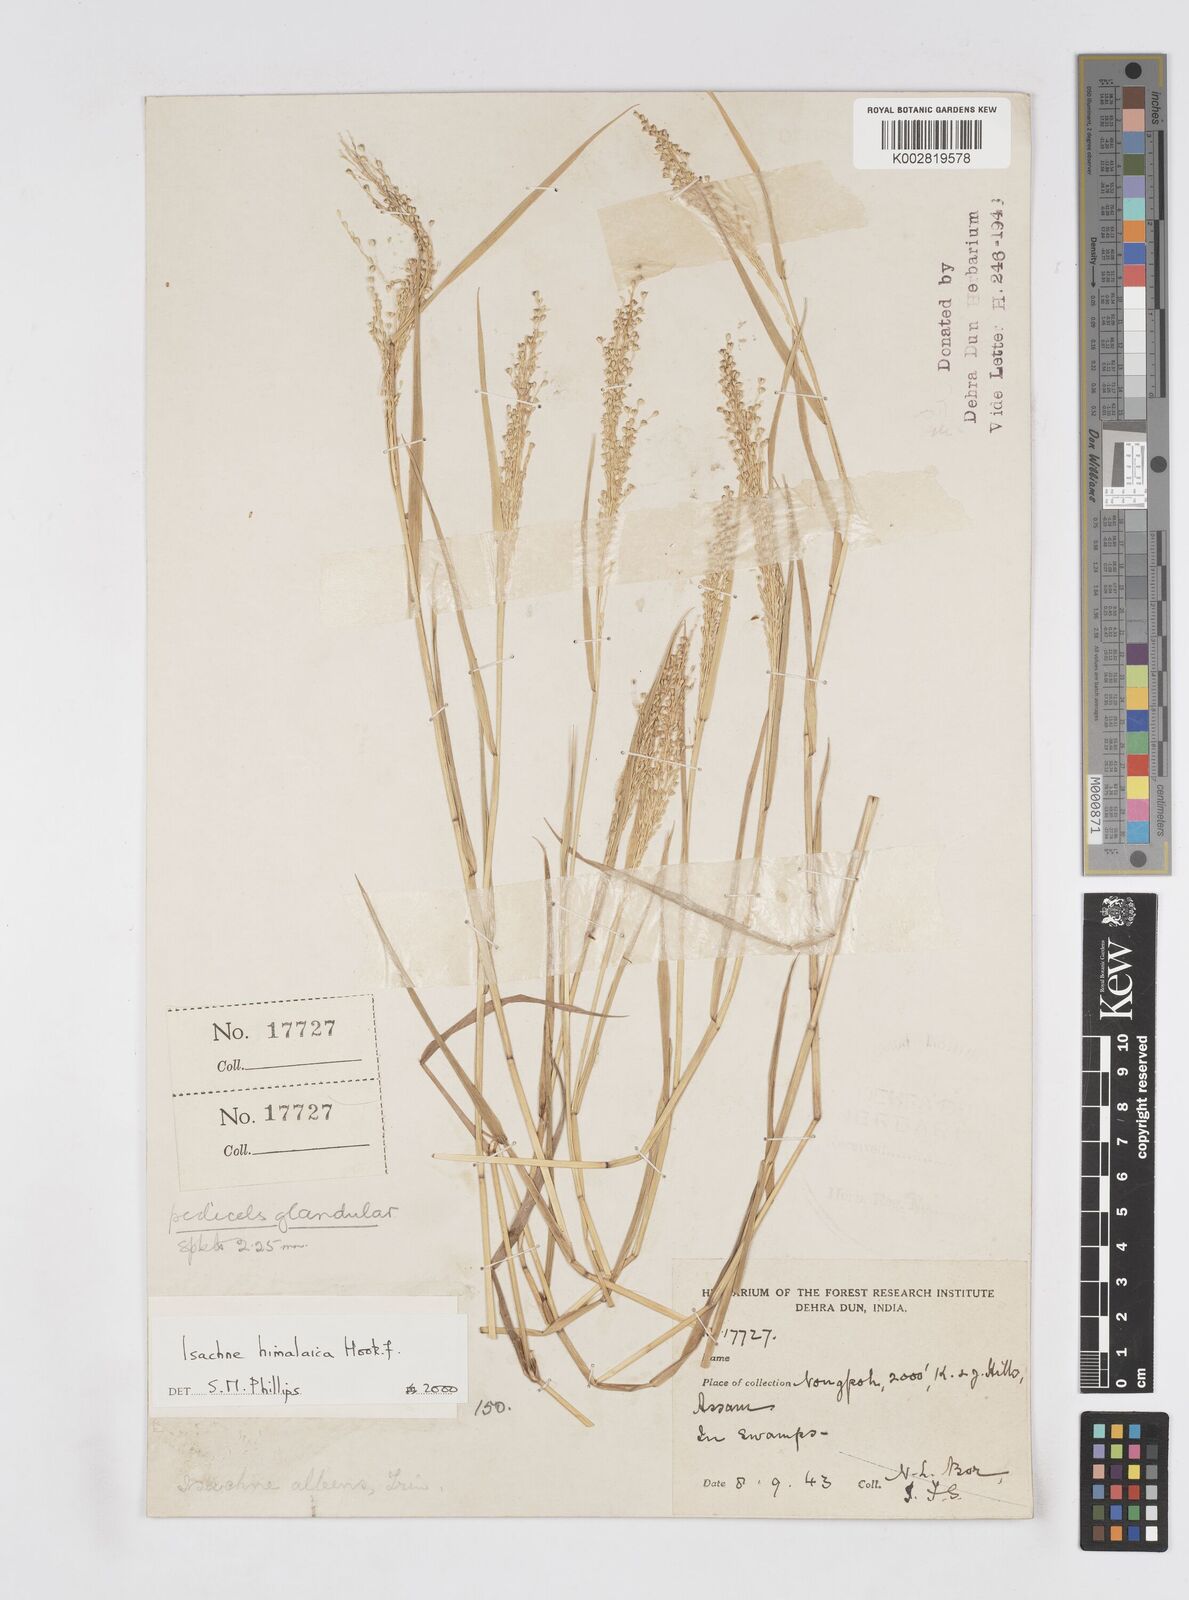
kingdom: Plantae
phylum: Tracheophyta
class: Liliopsida
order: Poales
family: Poaceae
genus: Isachne
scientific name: Isachne himalaica
